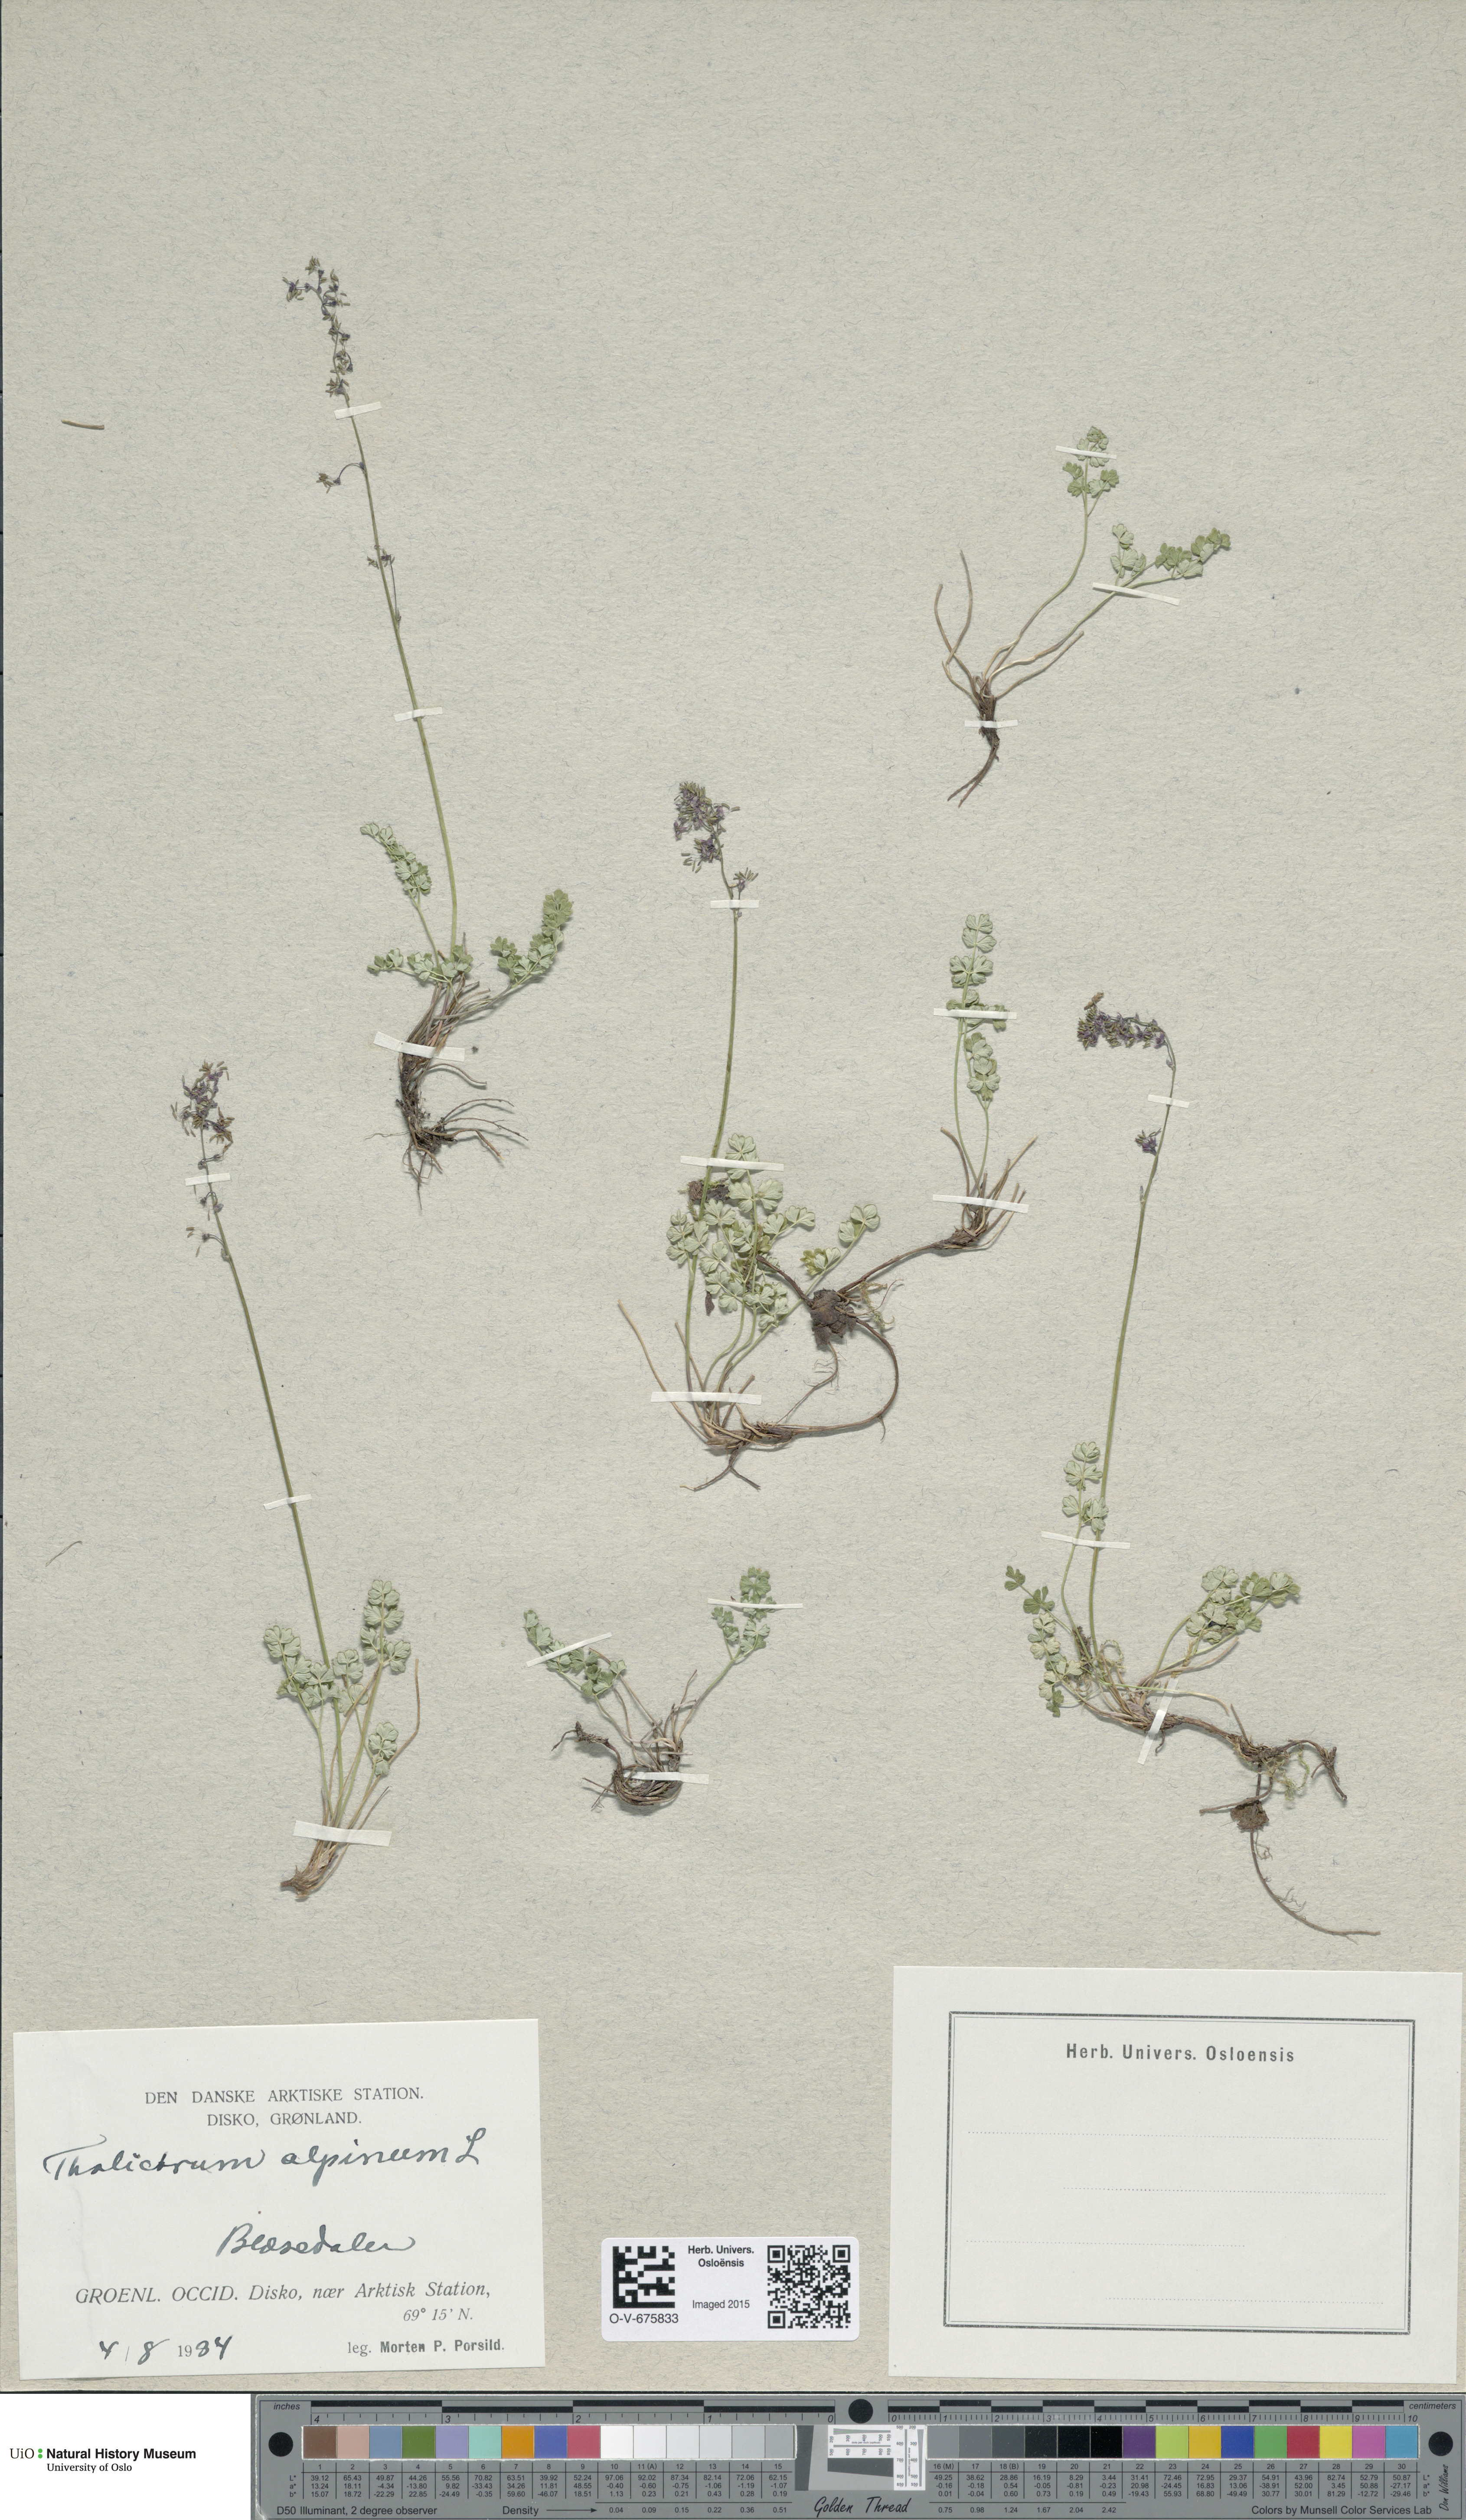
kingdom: Plantae
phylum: Tracheophyta
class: Magnoliopsida
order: Ranunculales
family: Ranunculaceae
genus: Thalictrum
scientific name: Thalictrum alpinum
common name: Alpine meadow-rue
